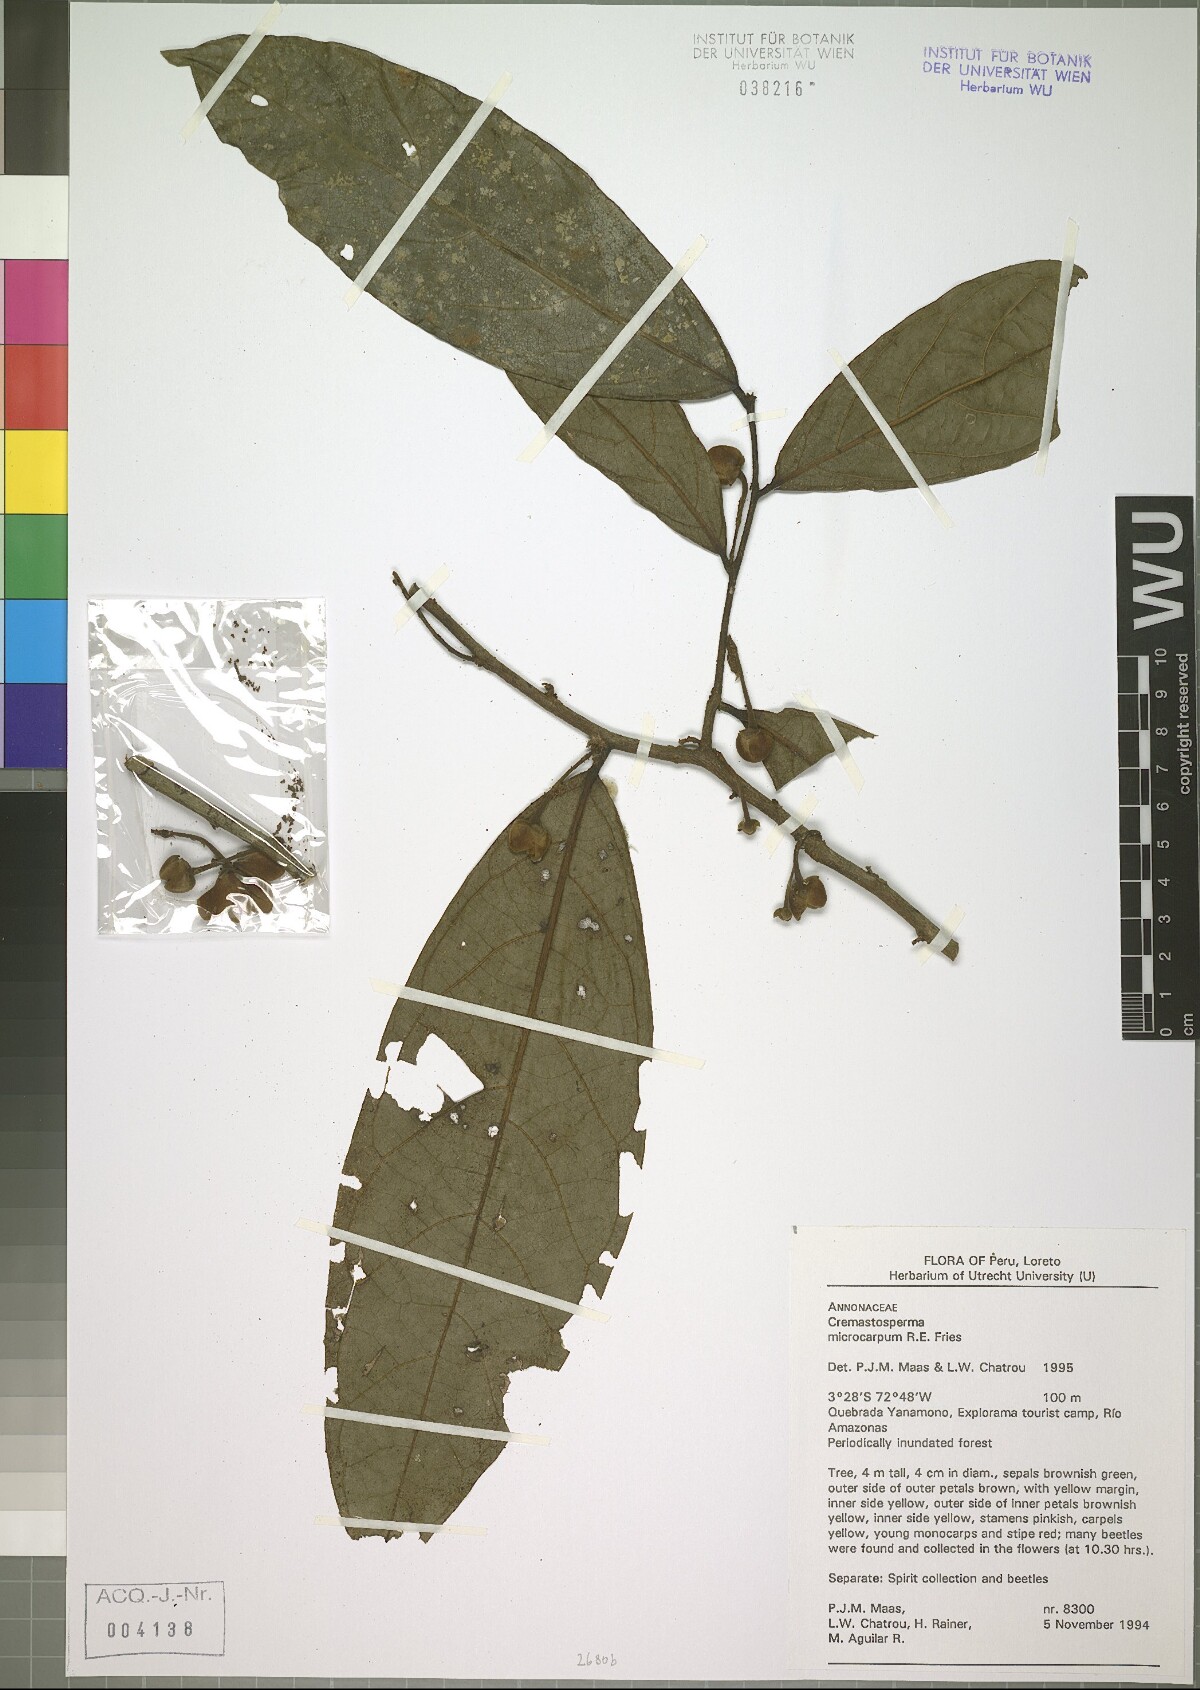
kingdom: Plantae
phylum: Tracheophyta
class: Magnoliopsida
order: Magnoliales
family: Annonaceae
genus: Cremastosperma
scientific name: Cremastosperma microcarpum
